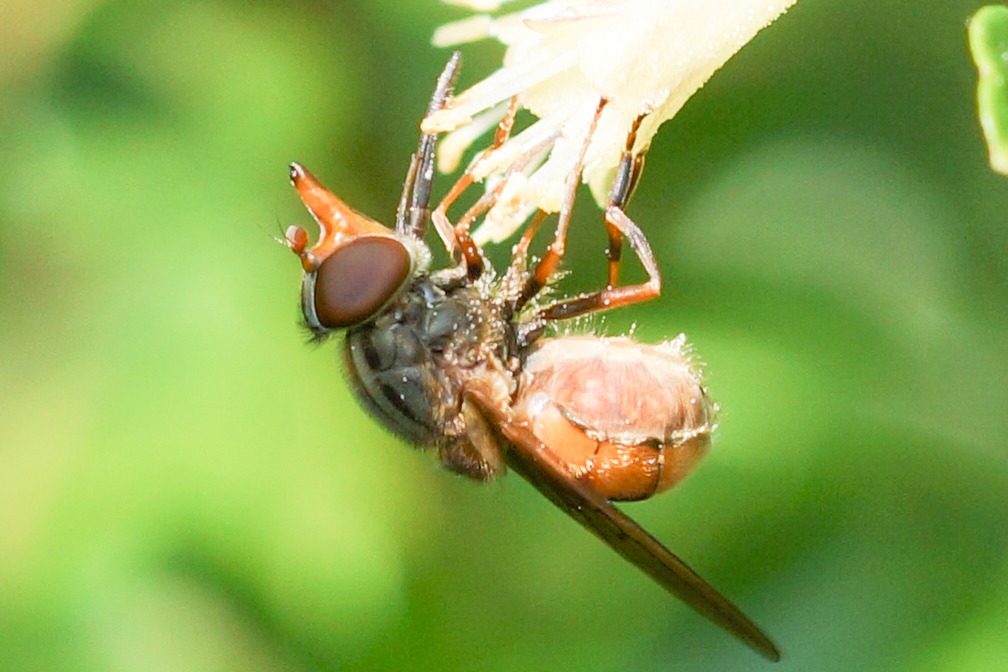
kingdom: Animalia
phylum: Arthropoda
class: Insecta
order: Diptera
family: Syrphidae
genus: Rhingia
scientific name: Rhingia campestris
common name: Mark-snabelsvirreflue
